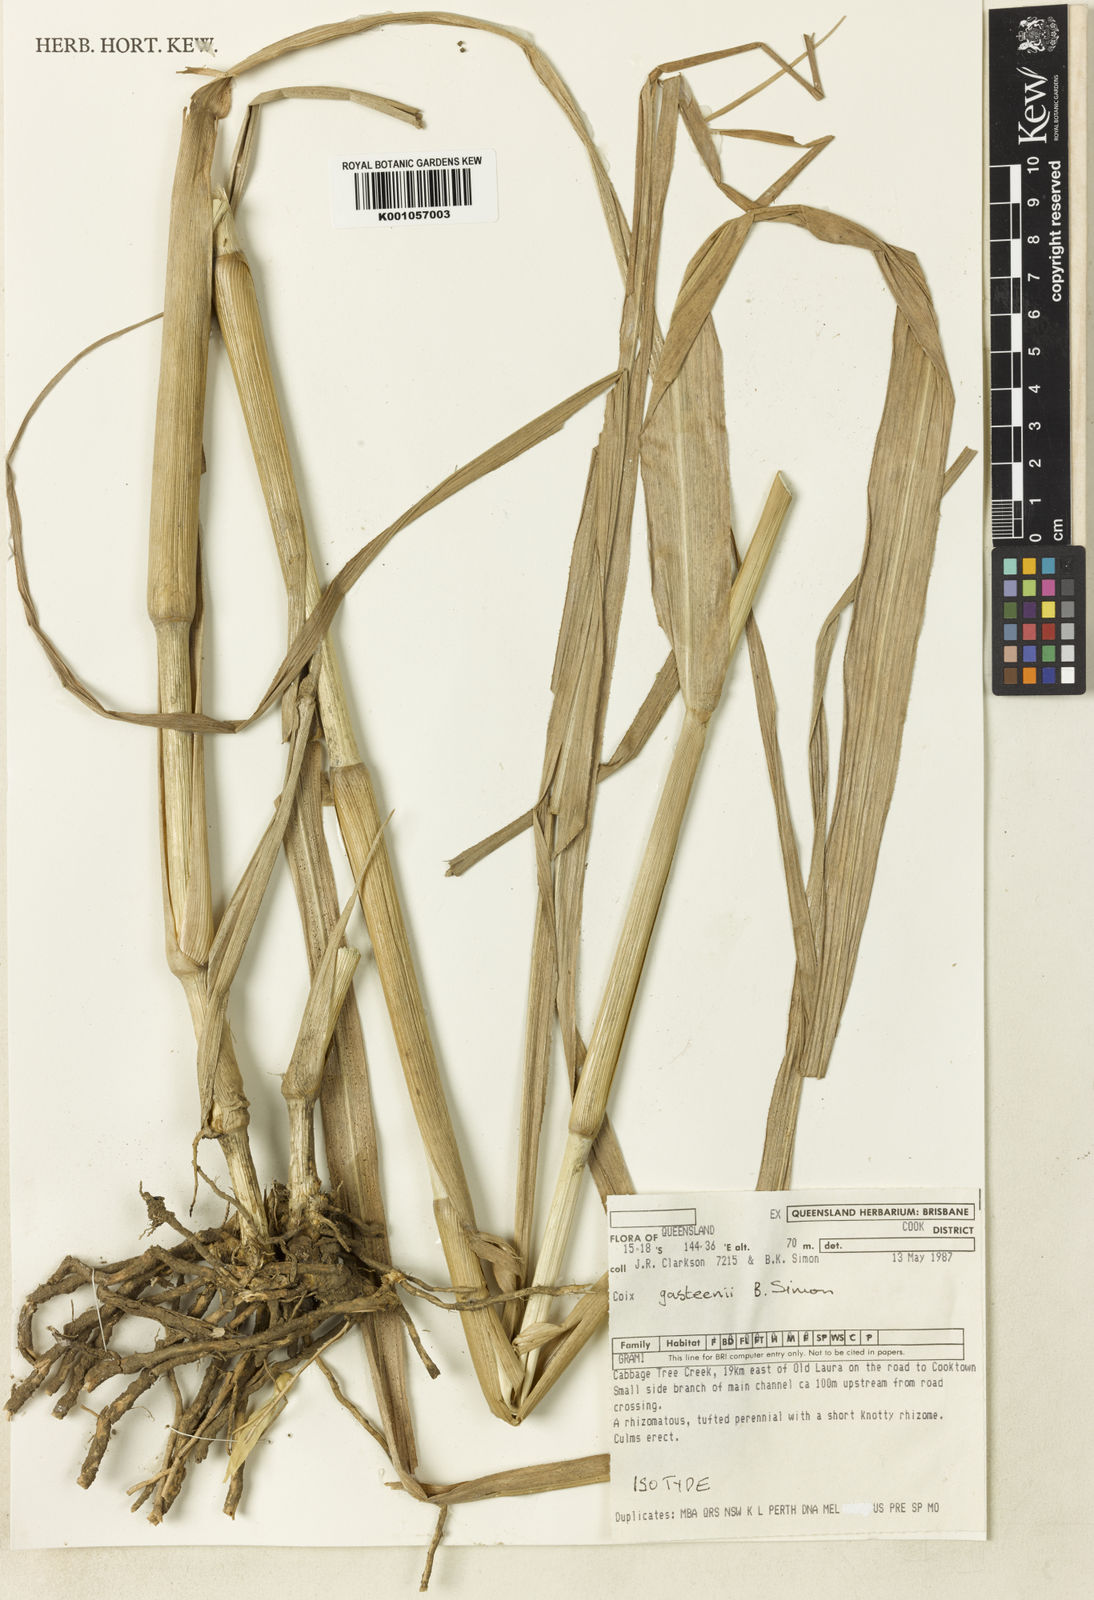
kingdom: Plantae
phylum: Tracheophyta
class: Liliopsida
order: Poales
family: Poaceae
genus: Coix
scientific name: Coix gasteenii
